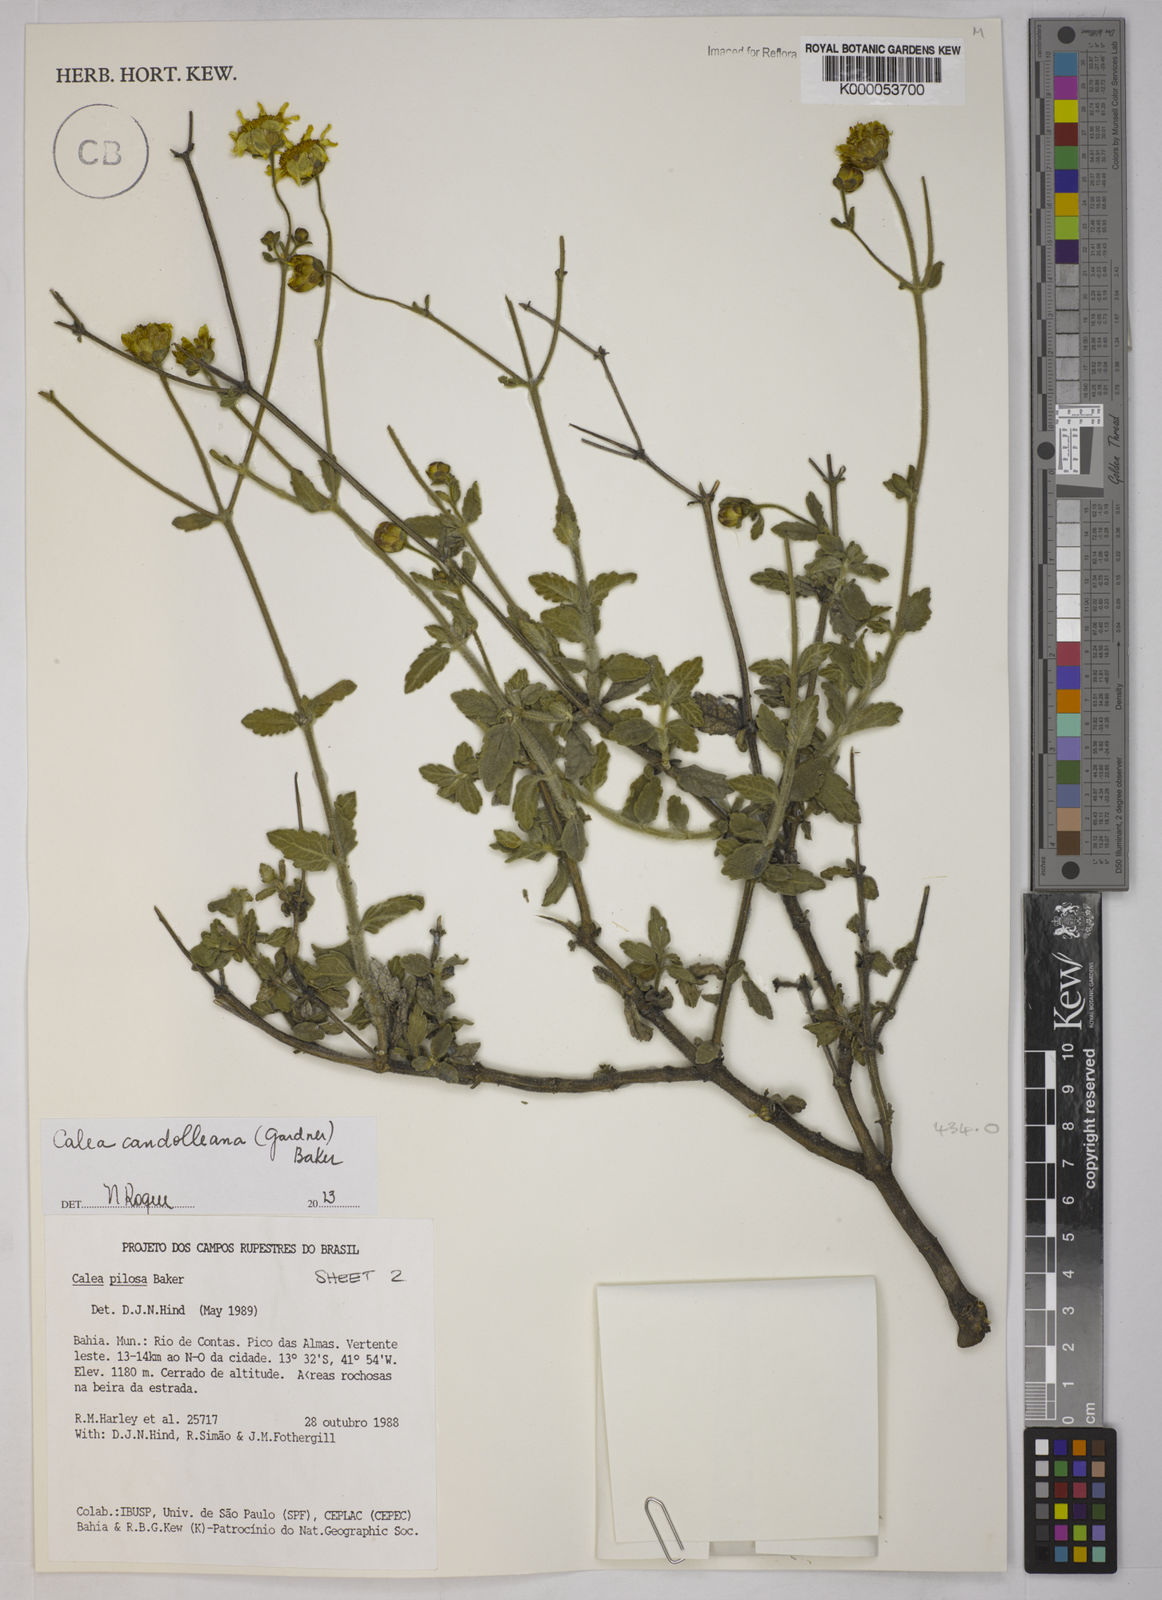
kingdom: Plantae
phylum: Tracheophyta
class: Magnoliopsida
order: Asterales
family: Asteraceae
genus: Calea
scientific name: Calea pilosa
